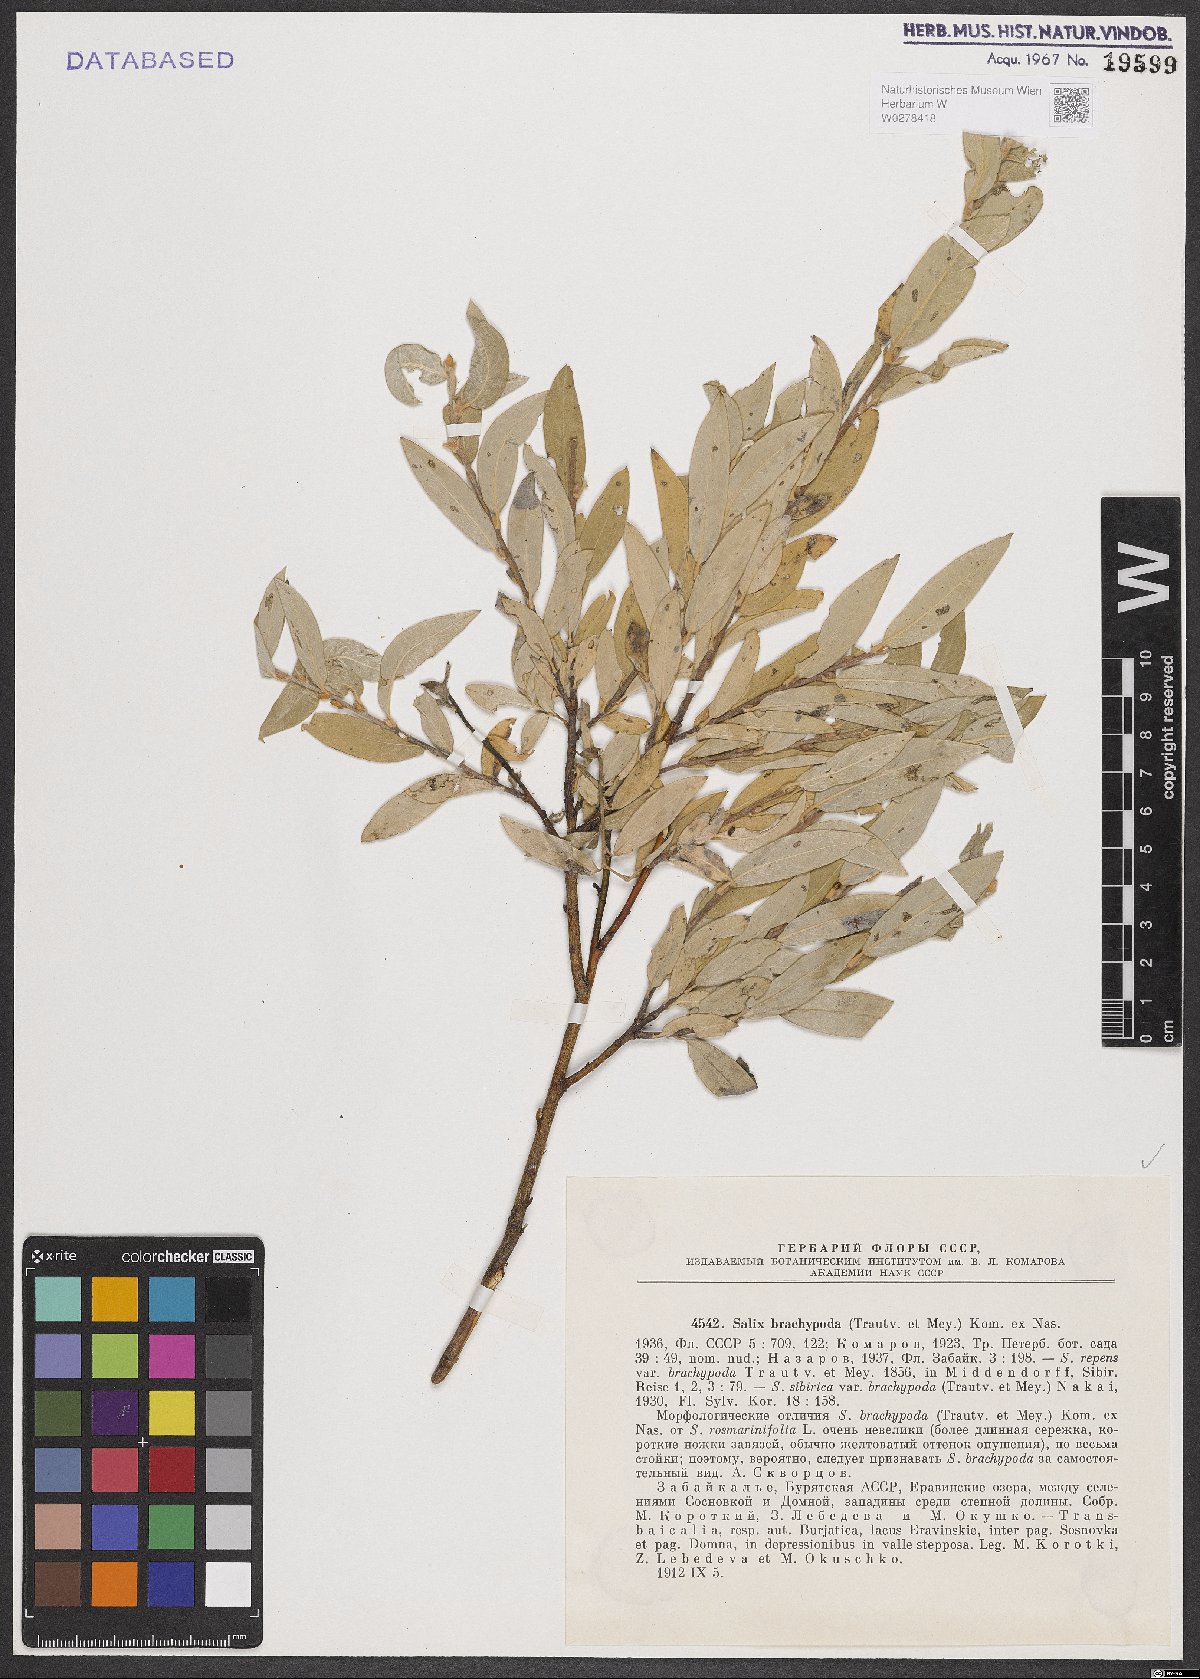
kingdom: Plantae
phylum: Tracheophyta
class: Magnoliopsida
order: Malpighiales
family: Salicaceae
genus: Salix
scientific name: Salix brachypoda
